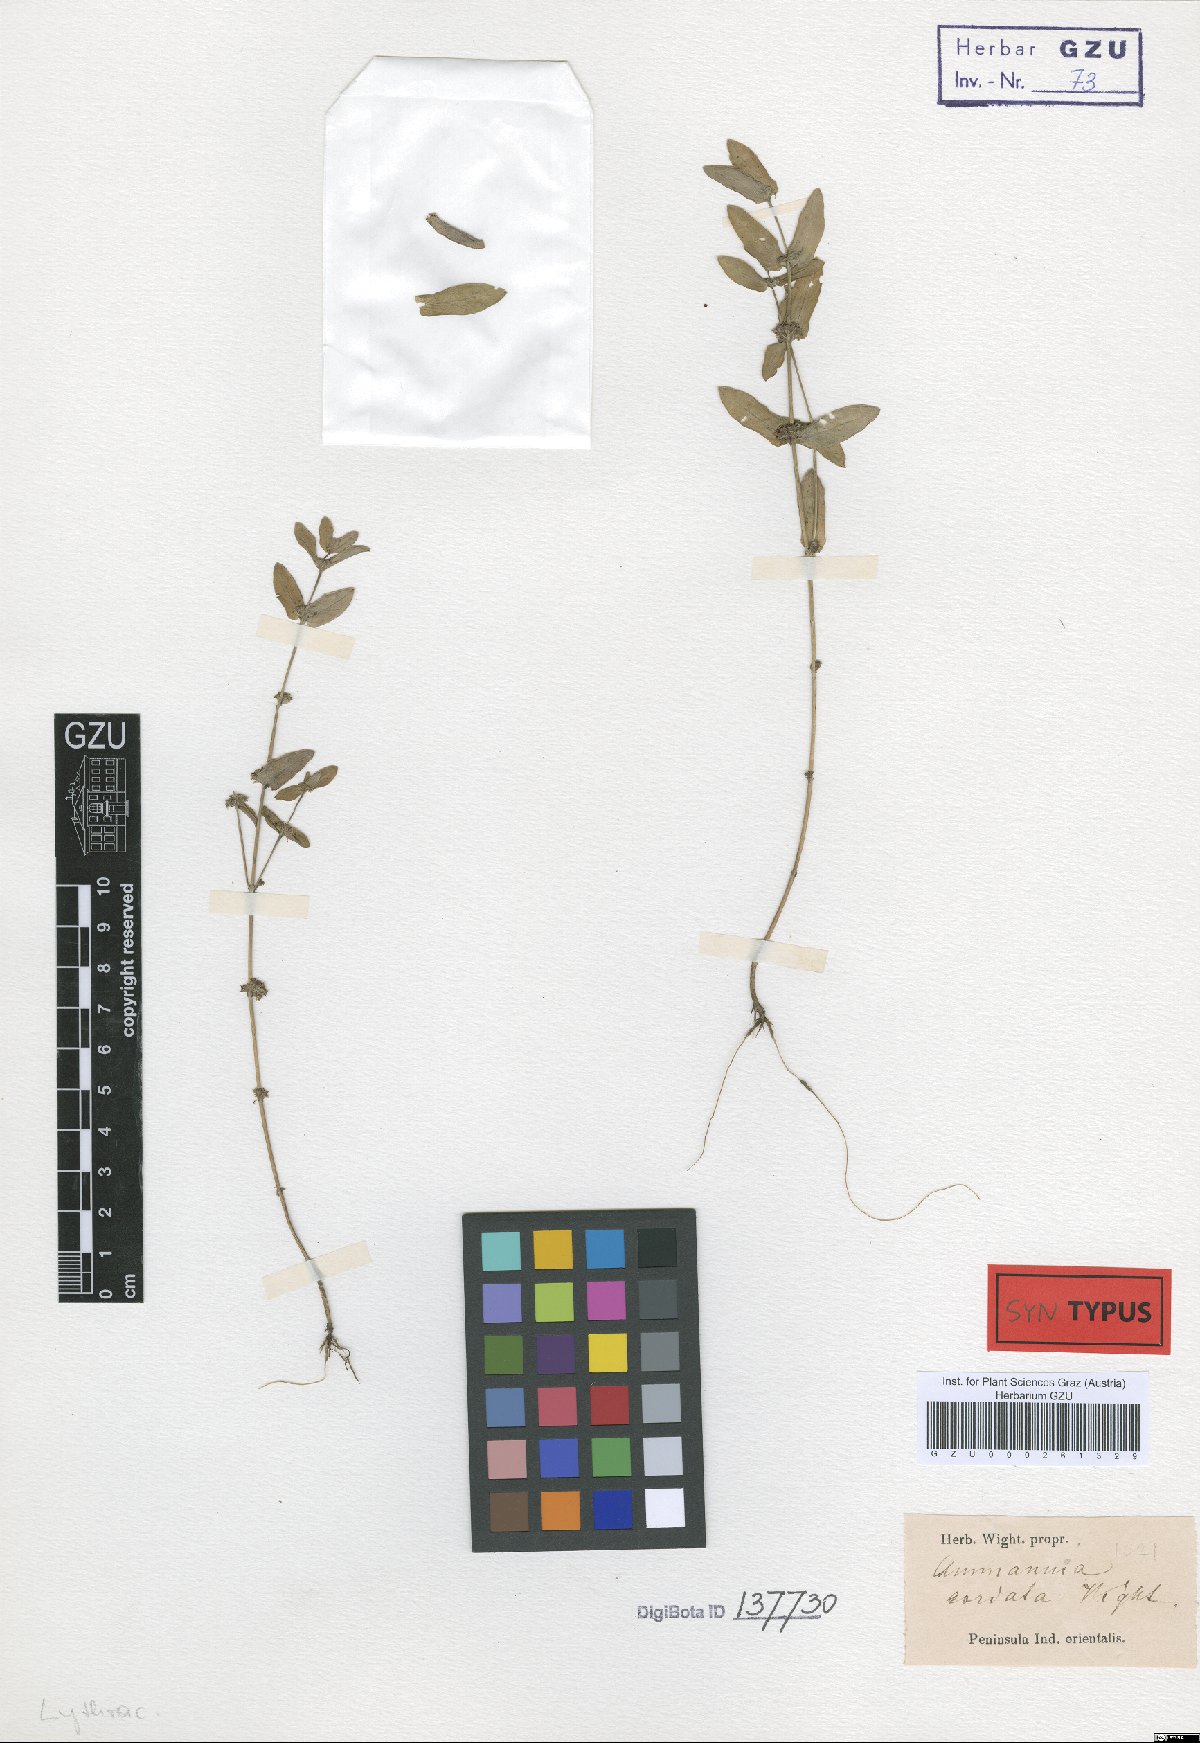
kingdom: Plantae
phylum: Tracheophyta
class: Magnoliopsida
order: Myrtales
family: Lythraceae
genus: Ammannia
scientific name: Ammannia cordata
